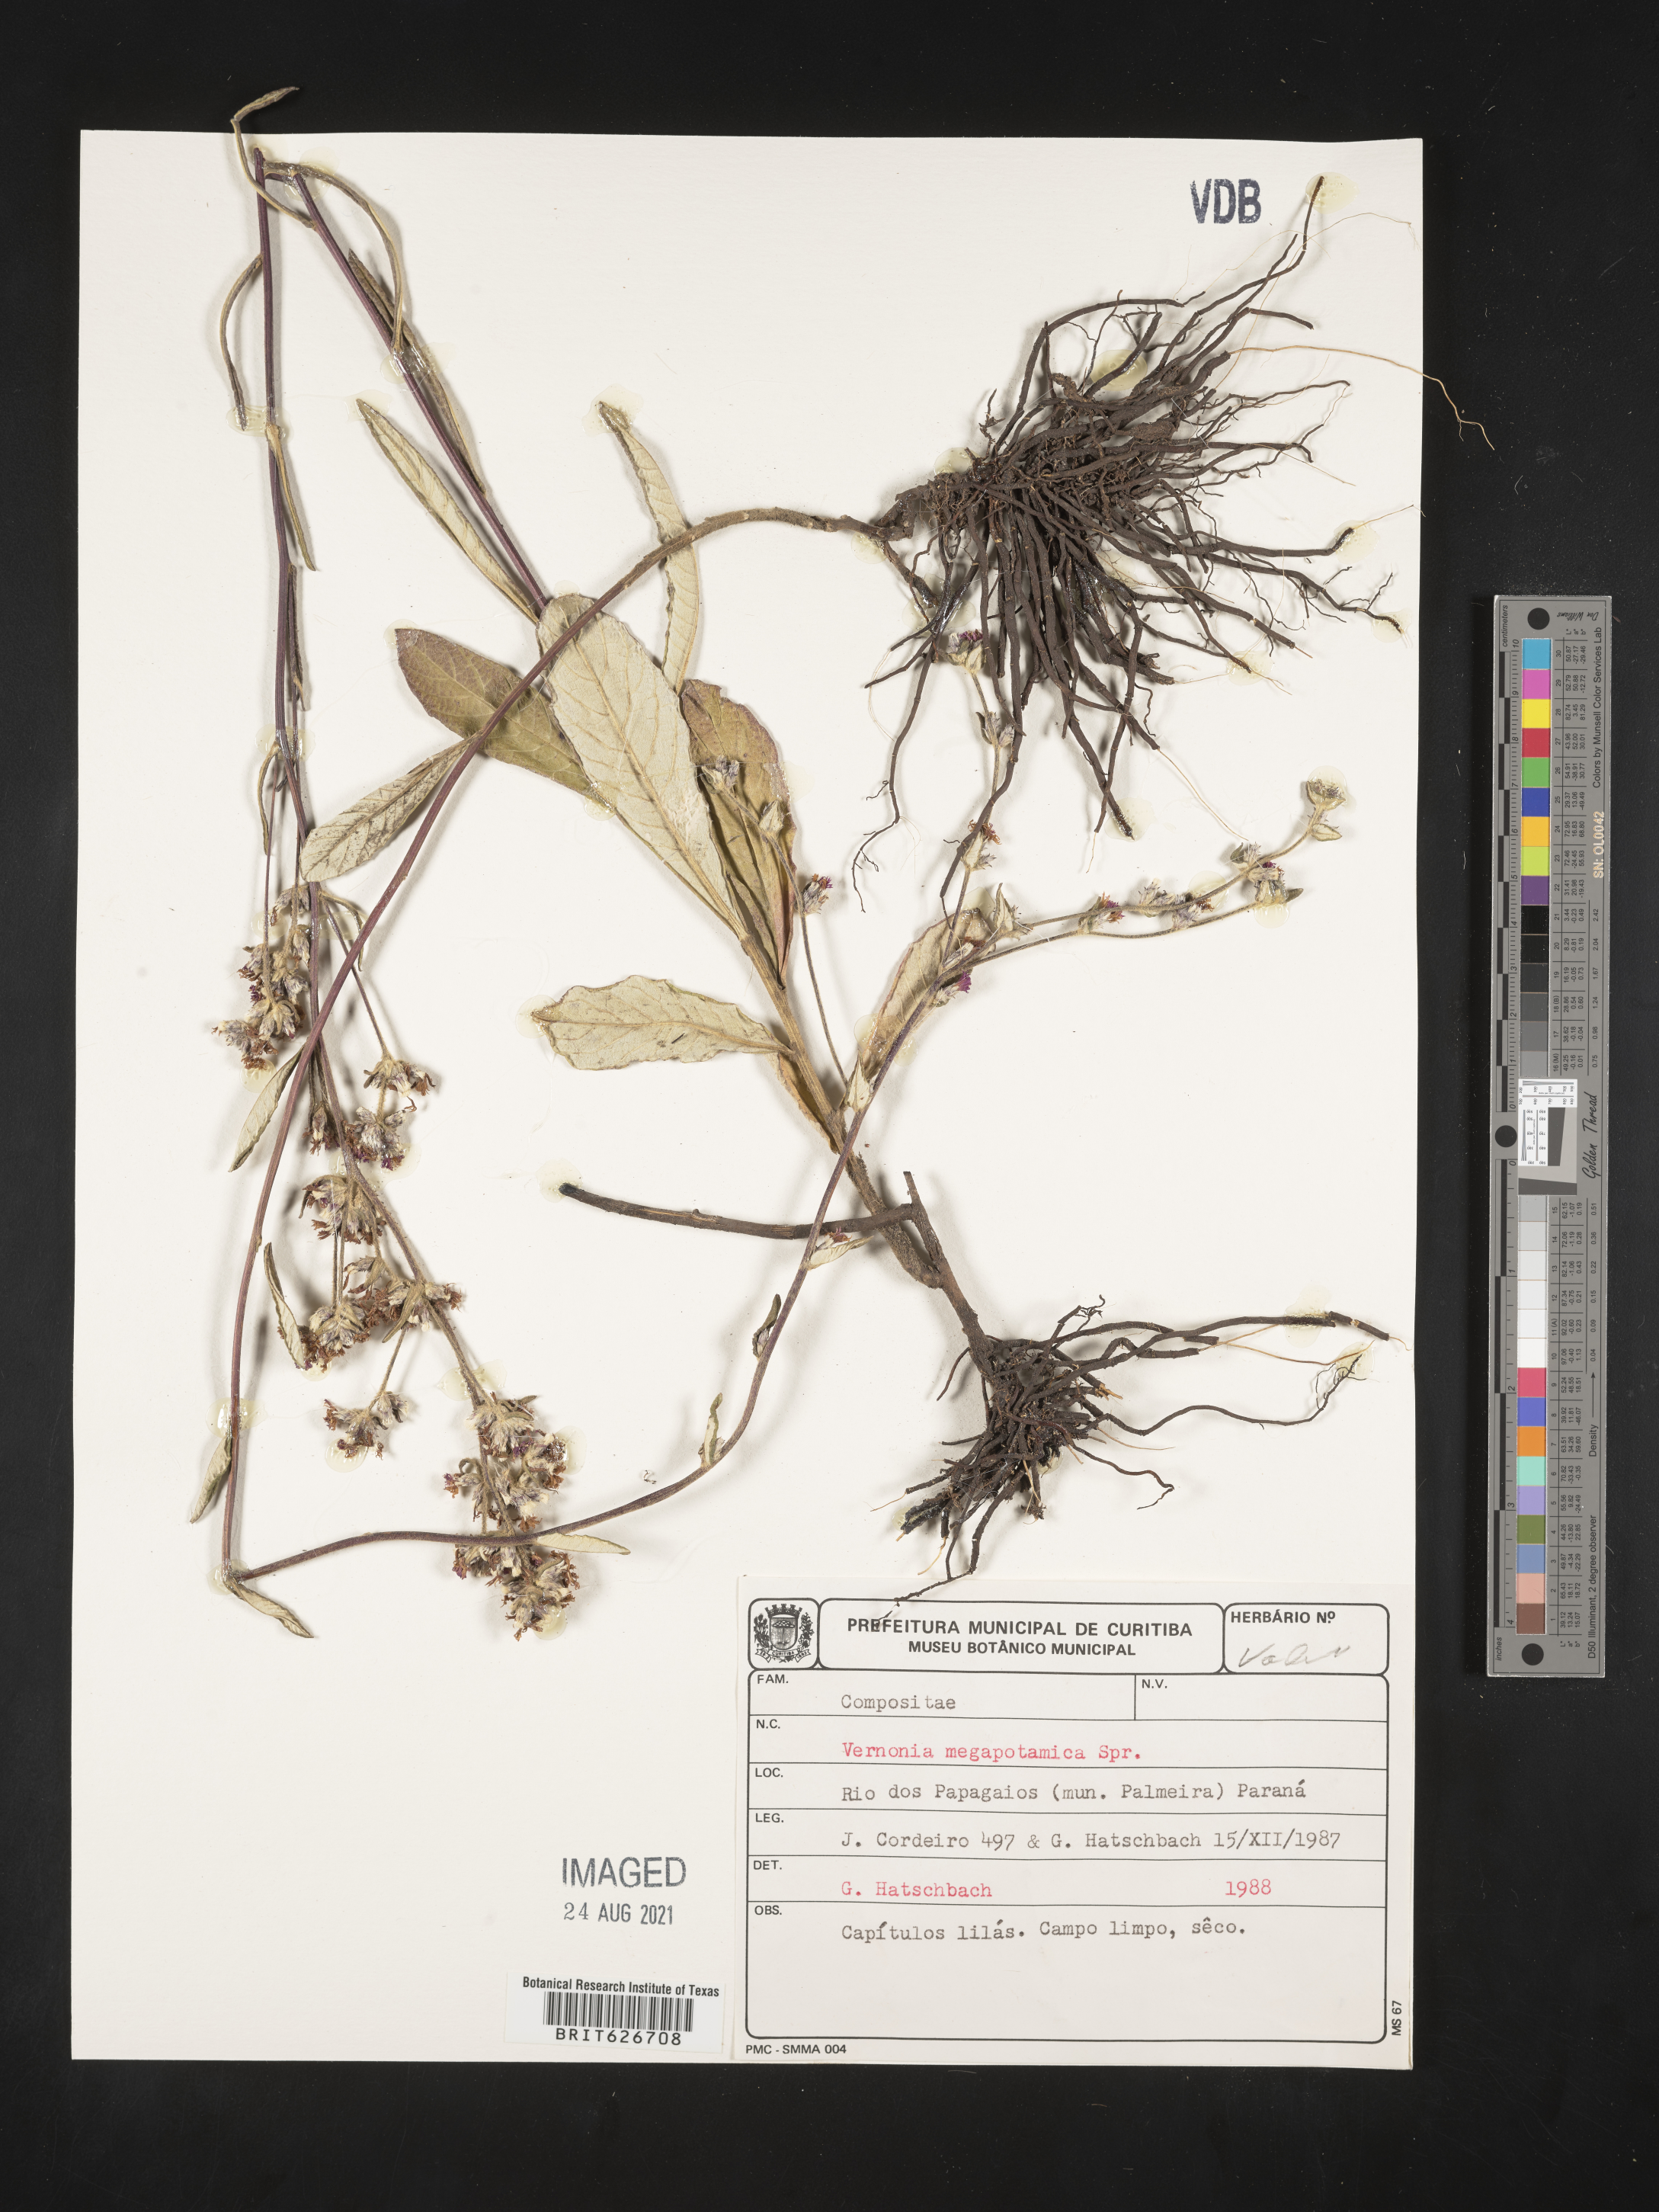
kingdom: Plantae
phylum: Tracheophyta
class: Magnoliopsida
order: Asterales
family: Asteraceae
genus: Stenocephalum
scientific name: Stenocephalum megapotamicum
